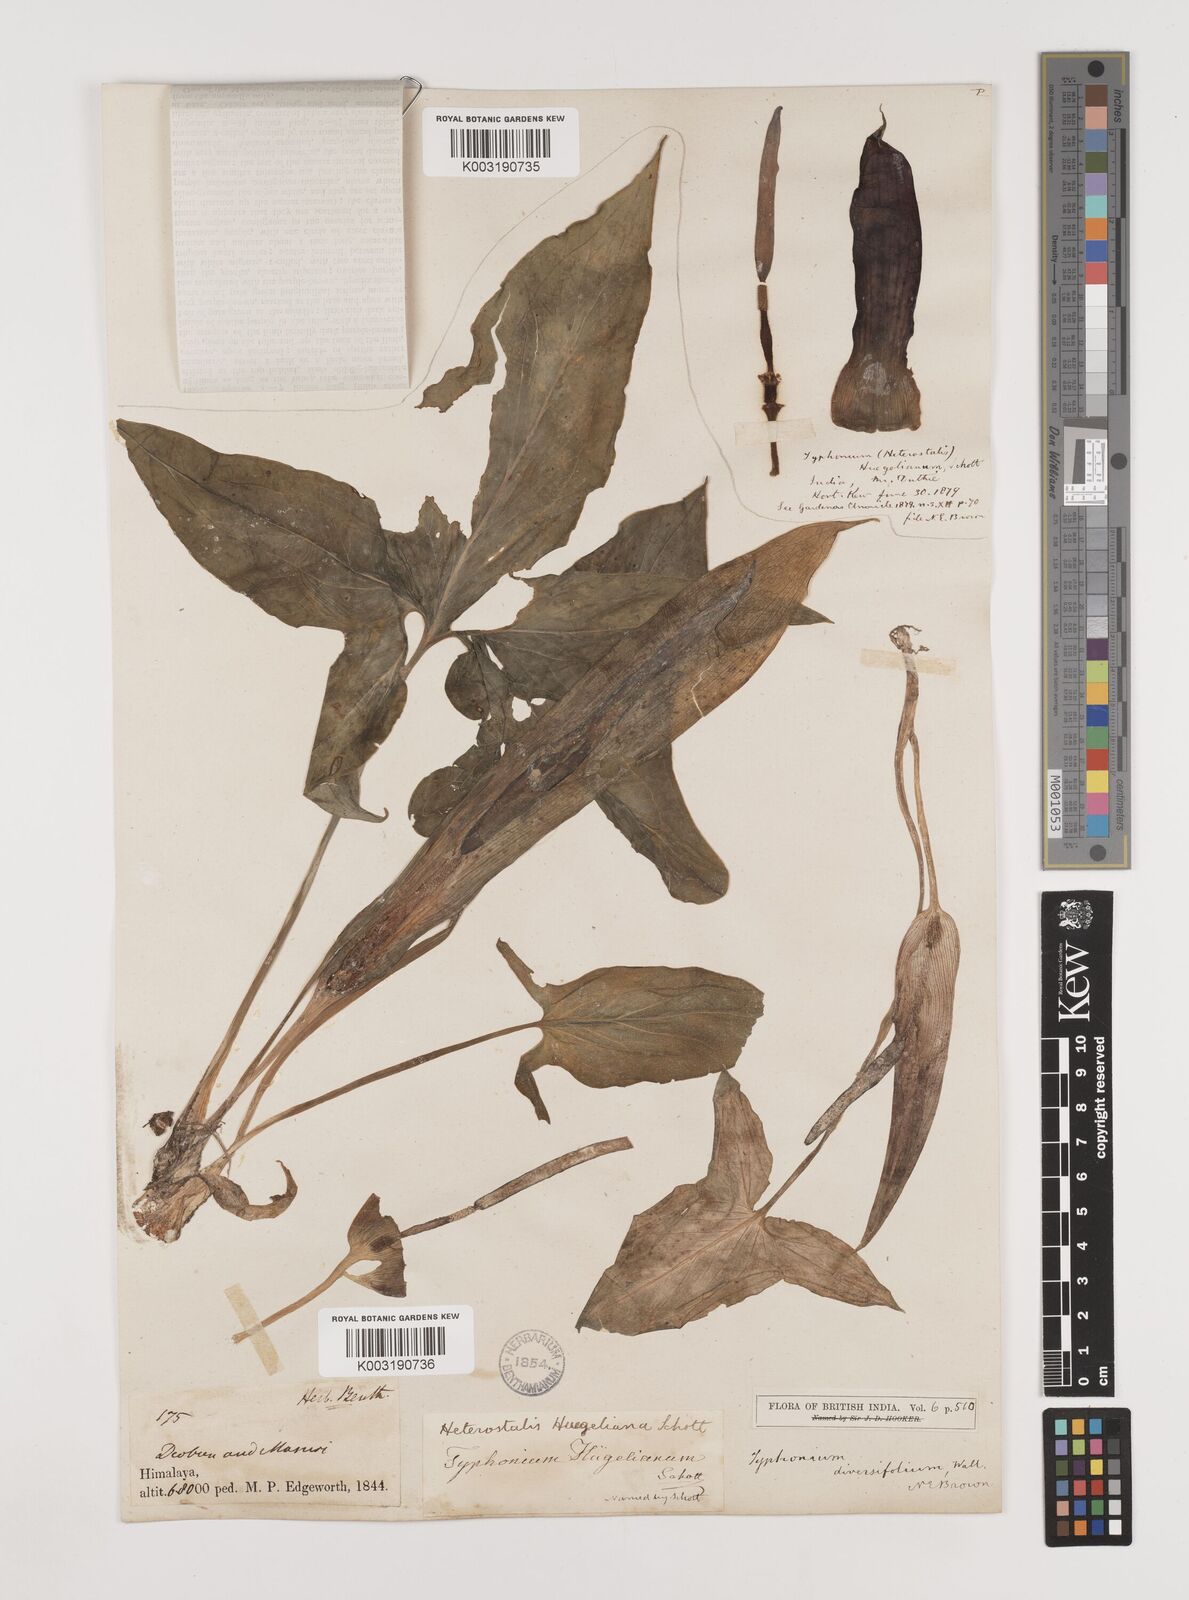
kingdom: Plantae
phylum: Tracheophyta
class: Liliopsida
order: Alismatales
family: Araceae
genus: Sauromatum
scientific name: Sauromatum diversifolium
